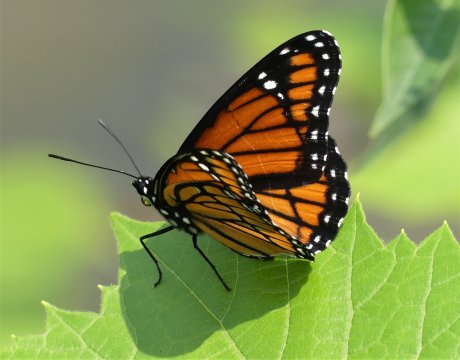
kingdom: Animalia
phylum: Arthropoda
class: Insecta
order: Lepidoptera
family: Nymphalidae
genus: Limenitis
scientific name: Limenitis archippus
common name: Viceroy
